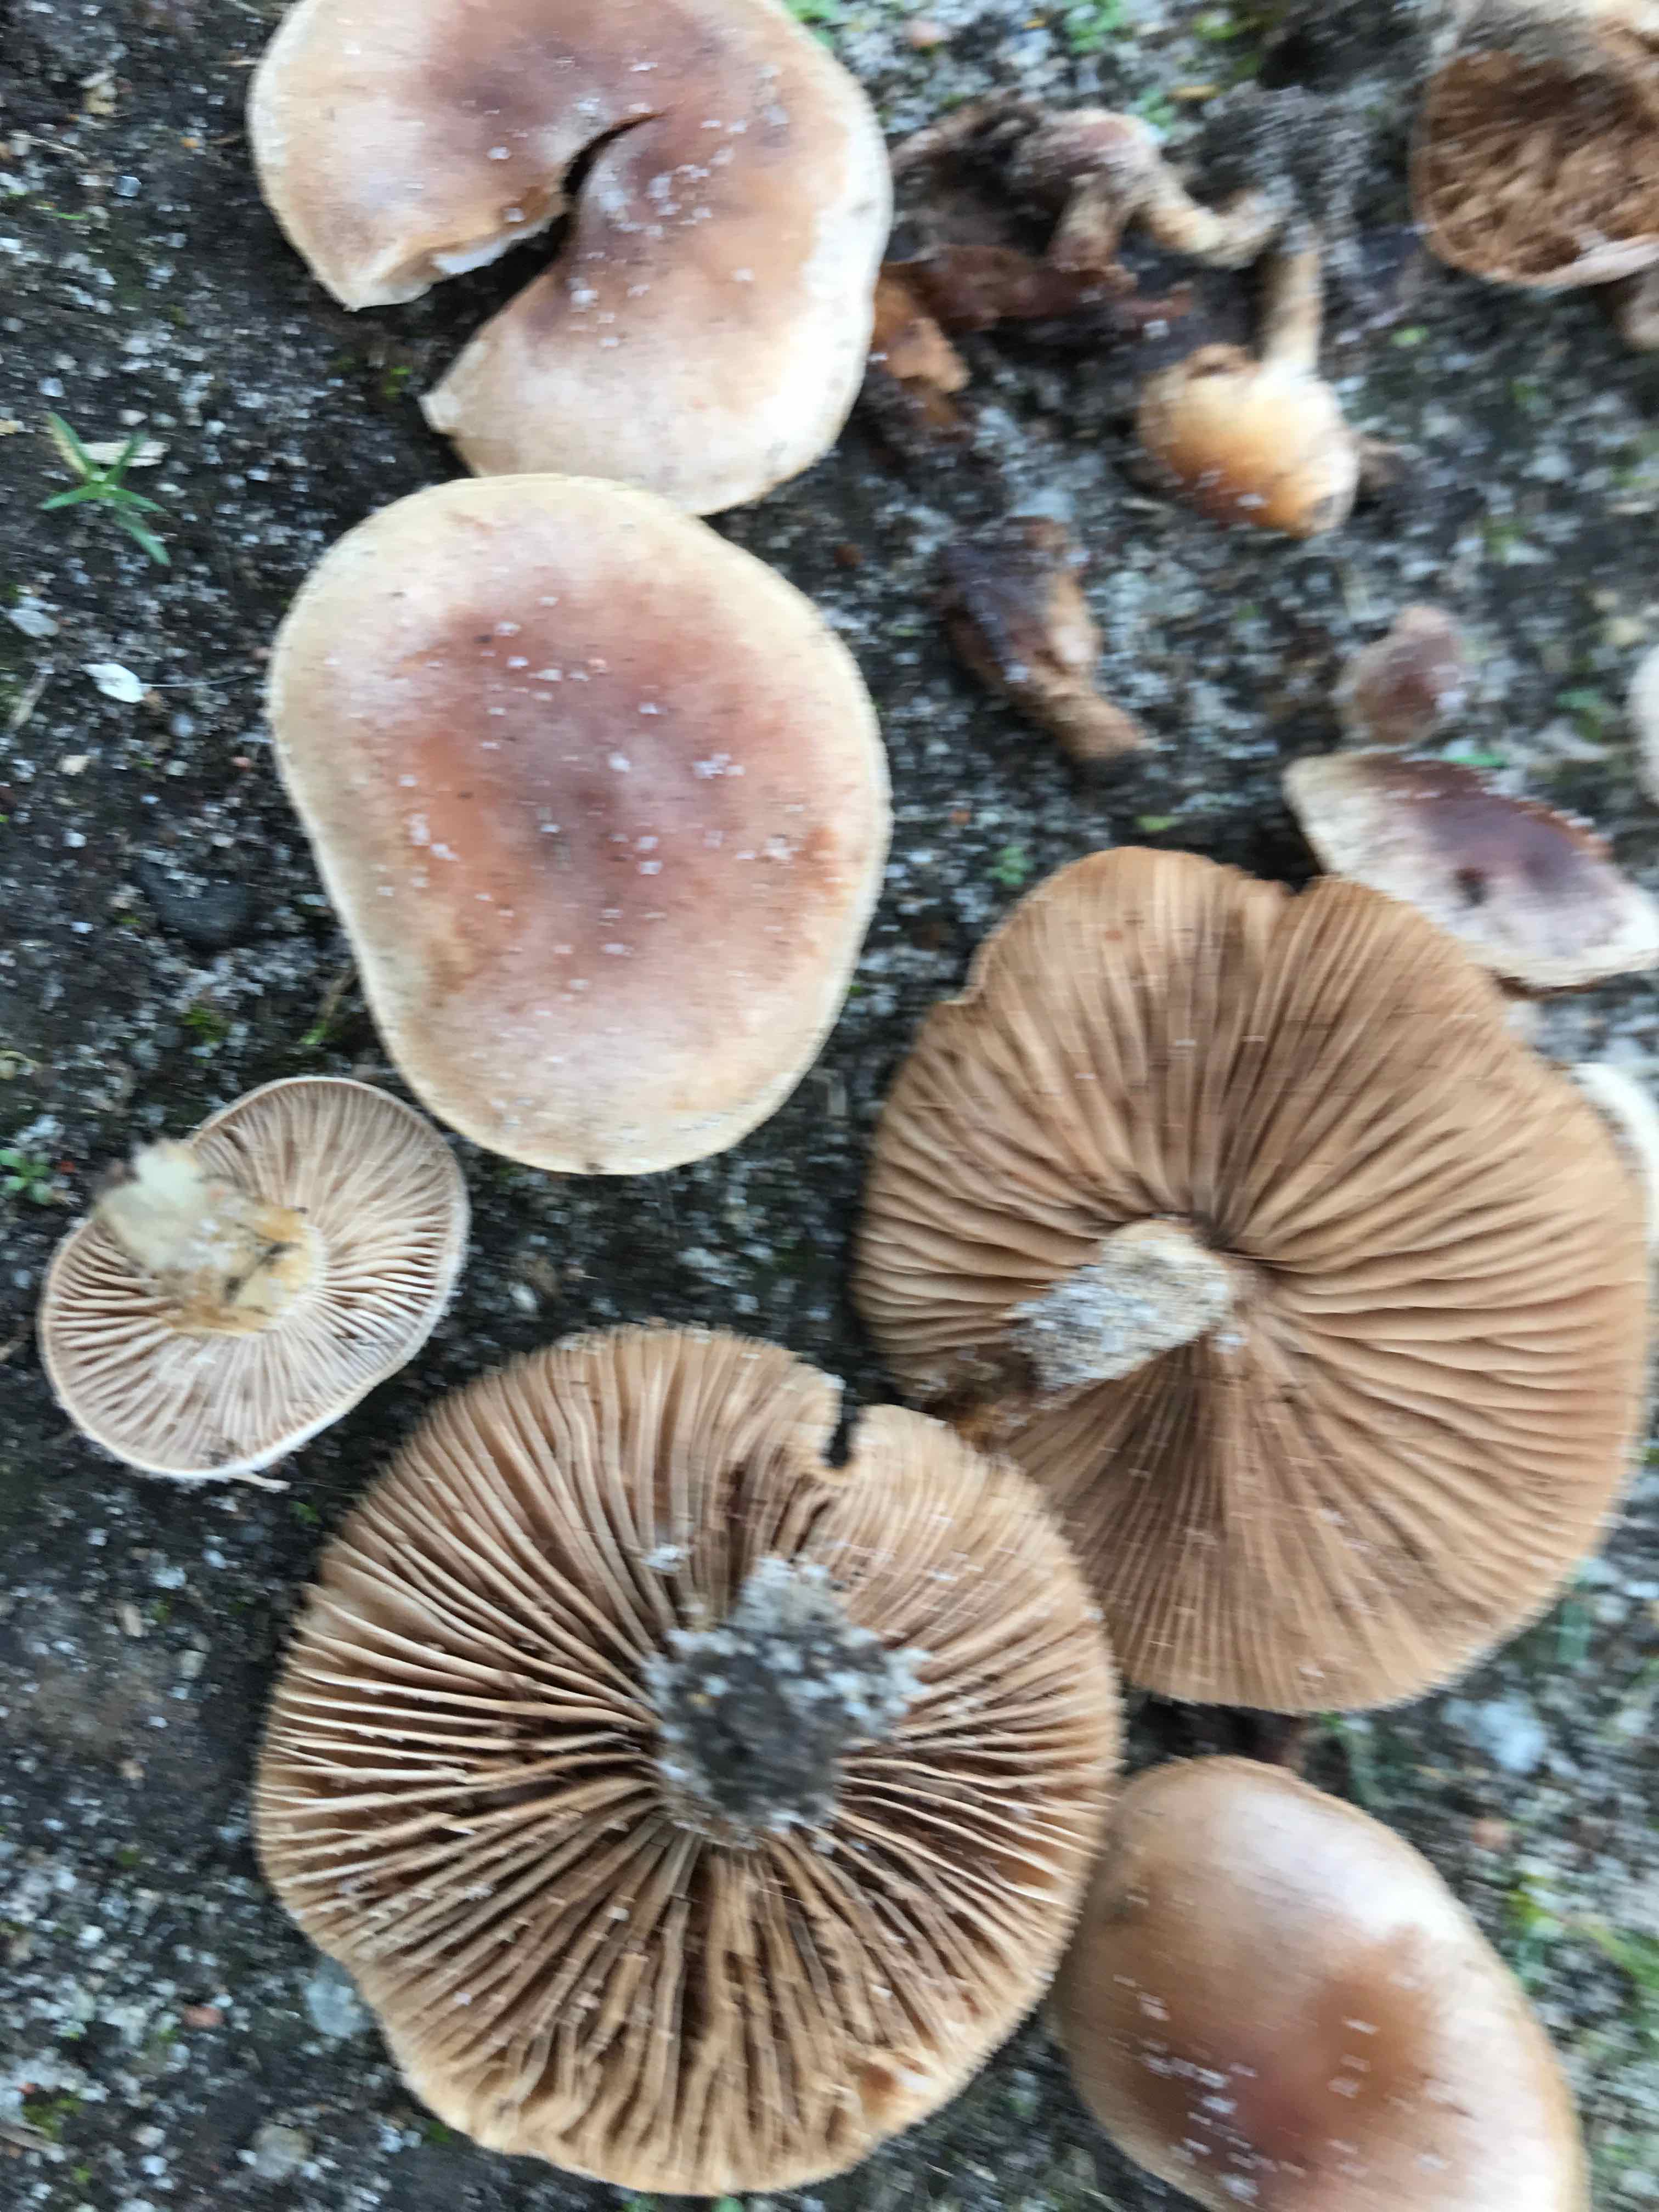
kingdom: Fungi
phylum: Basidiomycota
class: Agaricomycetes
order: Agaricales
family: Hymenogastraceae
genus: Hebeloma
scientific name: Hebeloma
